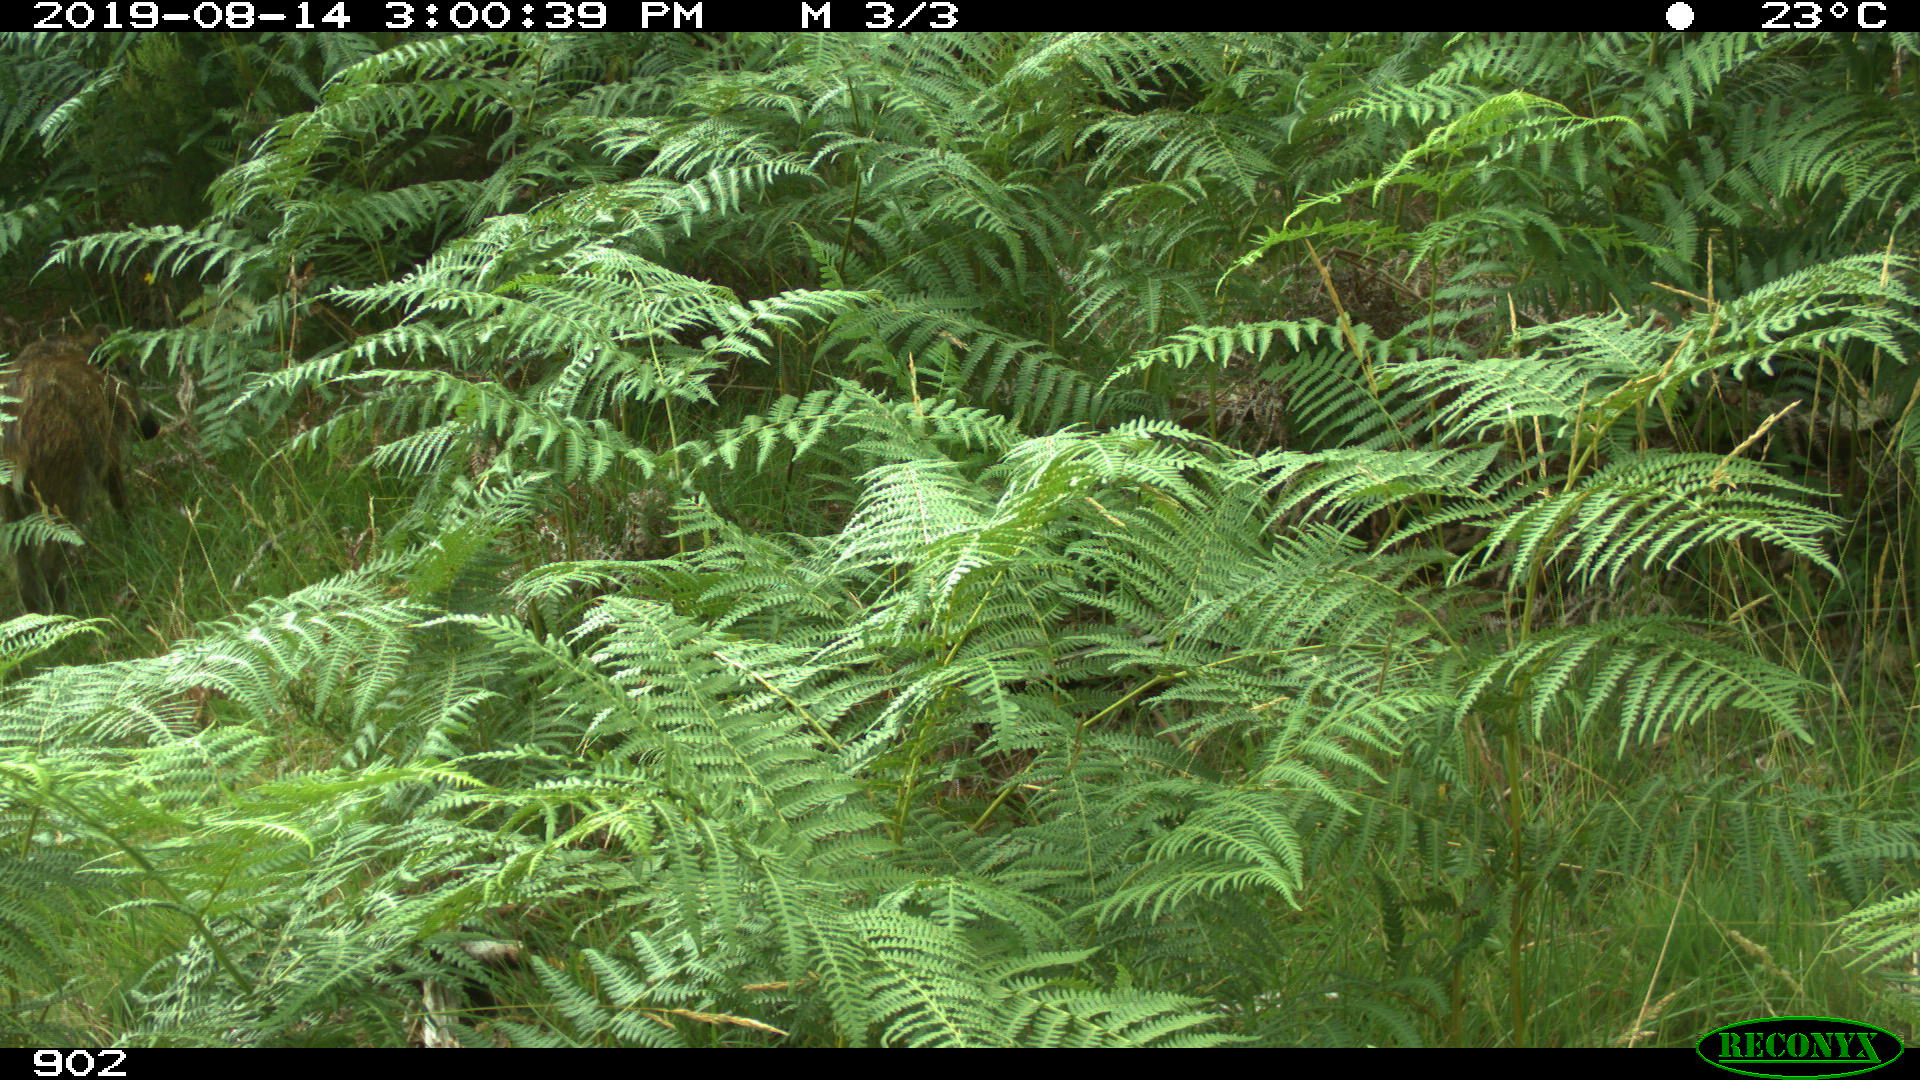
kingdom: Animalia
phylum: Chordata
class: Mammalia
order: Artiodactyla
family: Suidae
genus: Sus
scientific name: Sus scrofa
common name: Wild boar
